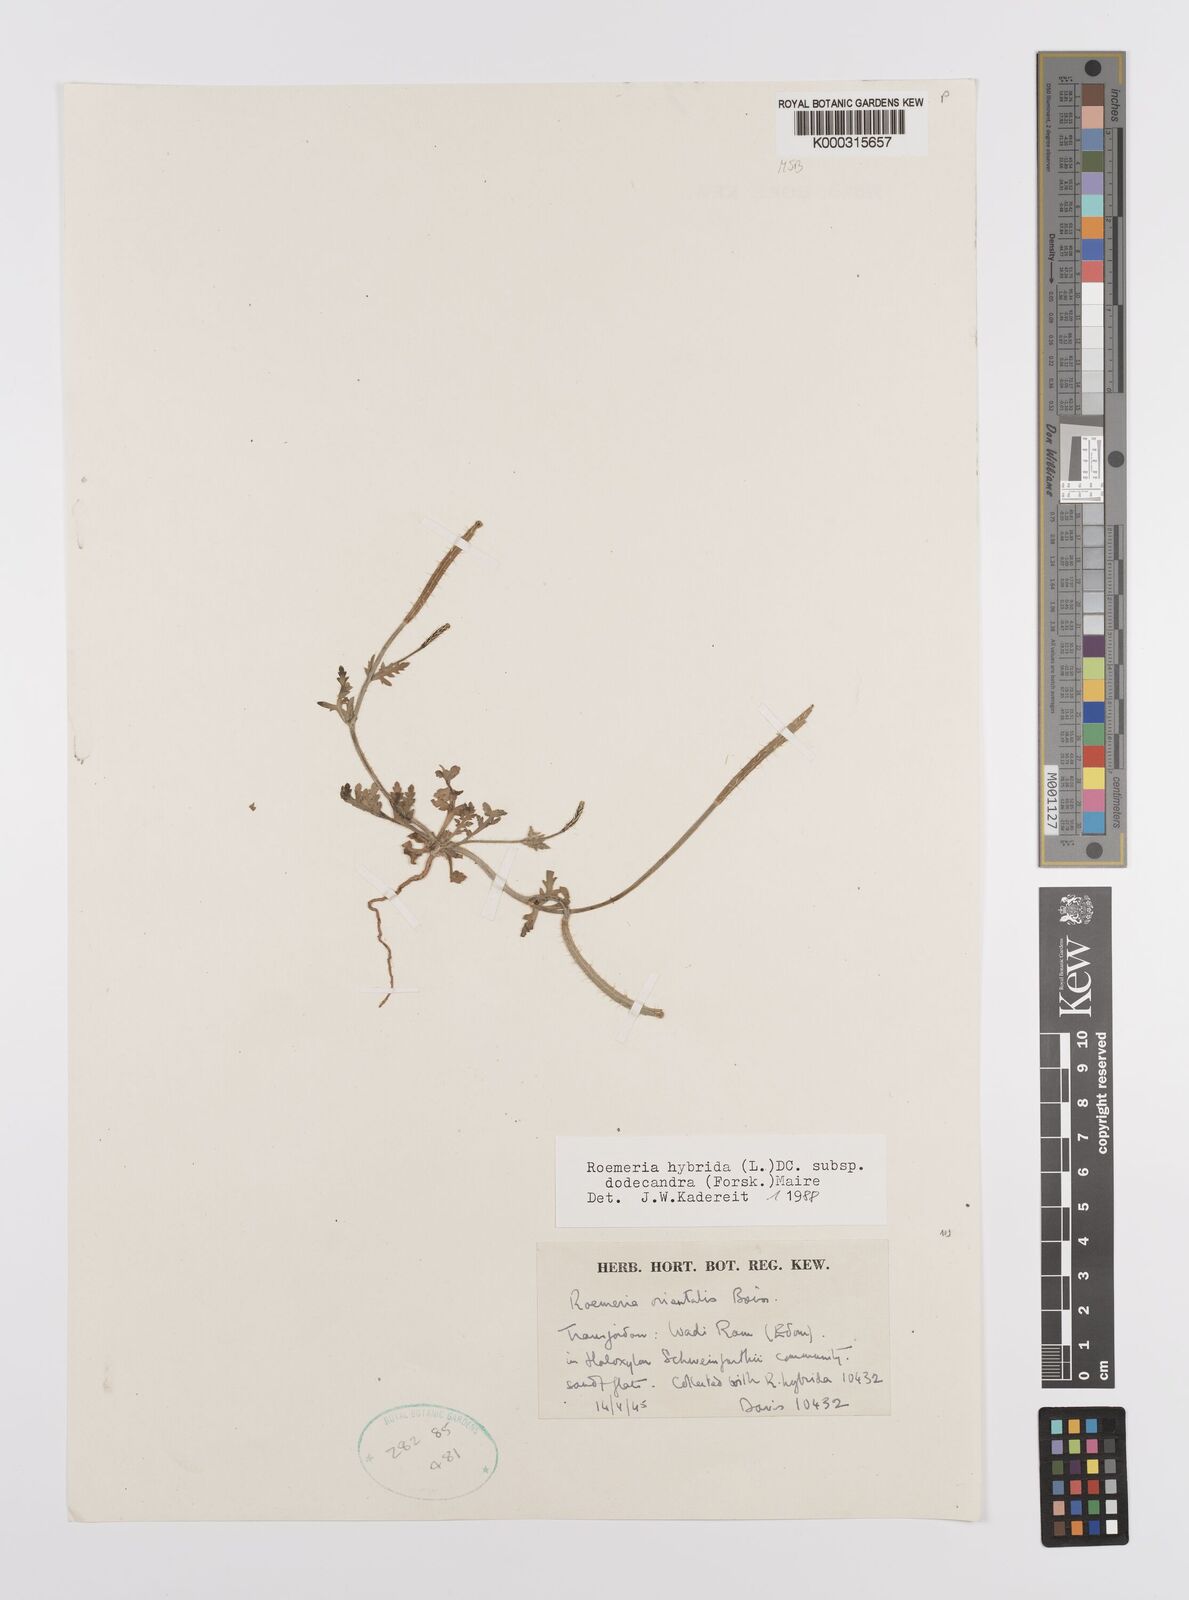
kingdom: Plantae
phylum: Tracheophyta
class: Magnoliopsida
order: Ranunculales
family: Papaveraceae
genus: Roemeria
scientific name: Roemeria hybrida
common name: Violet horned-poppy
